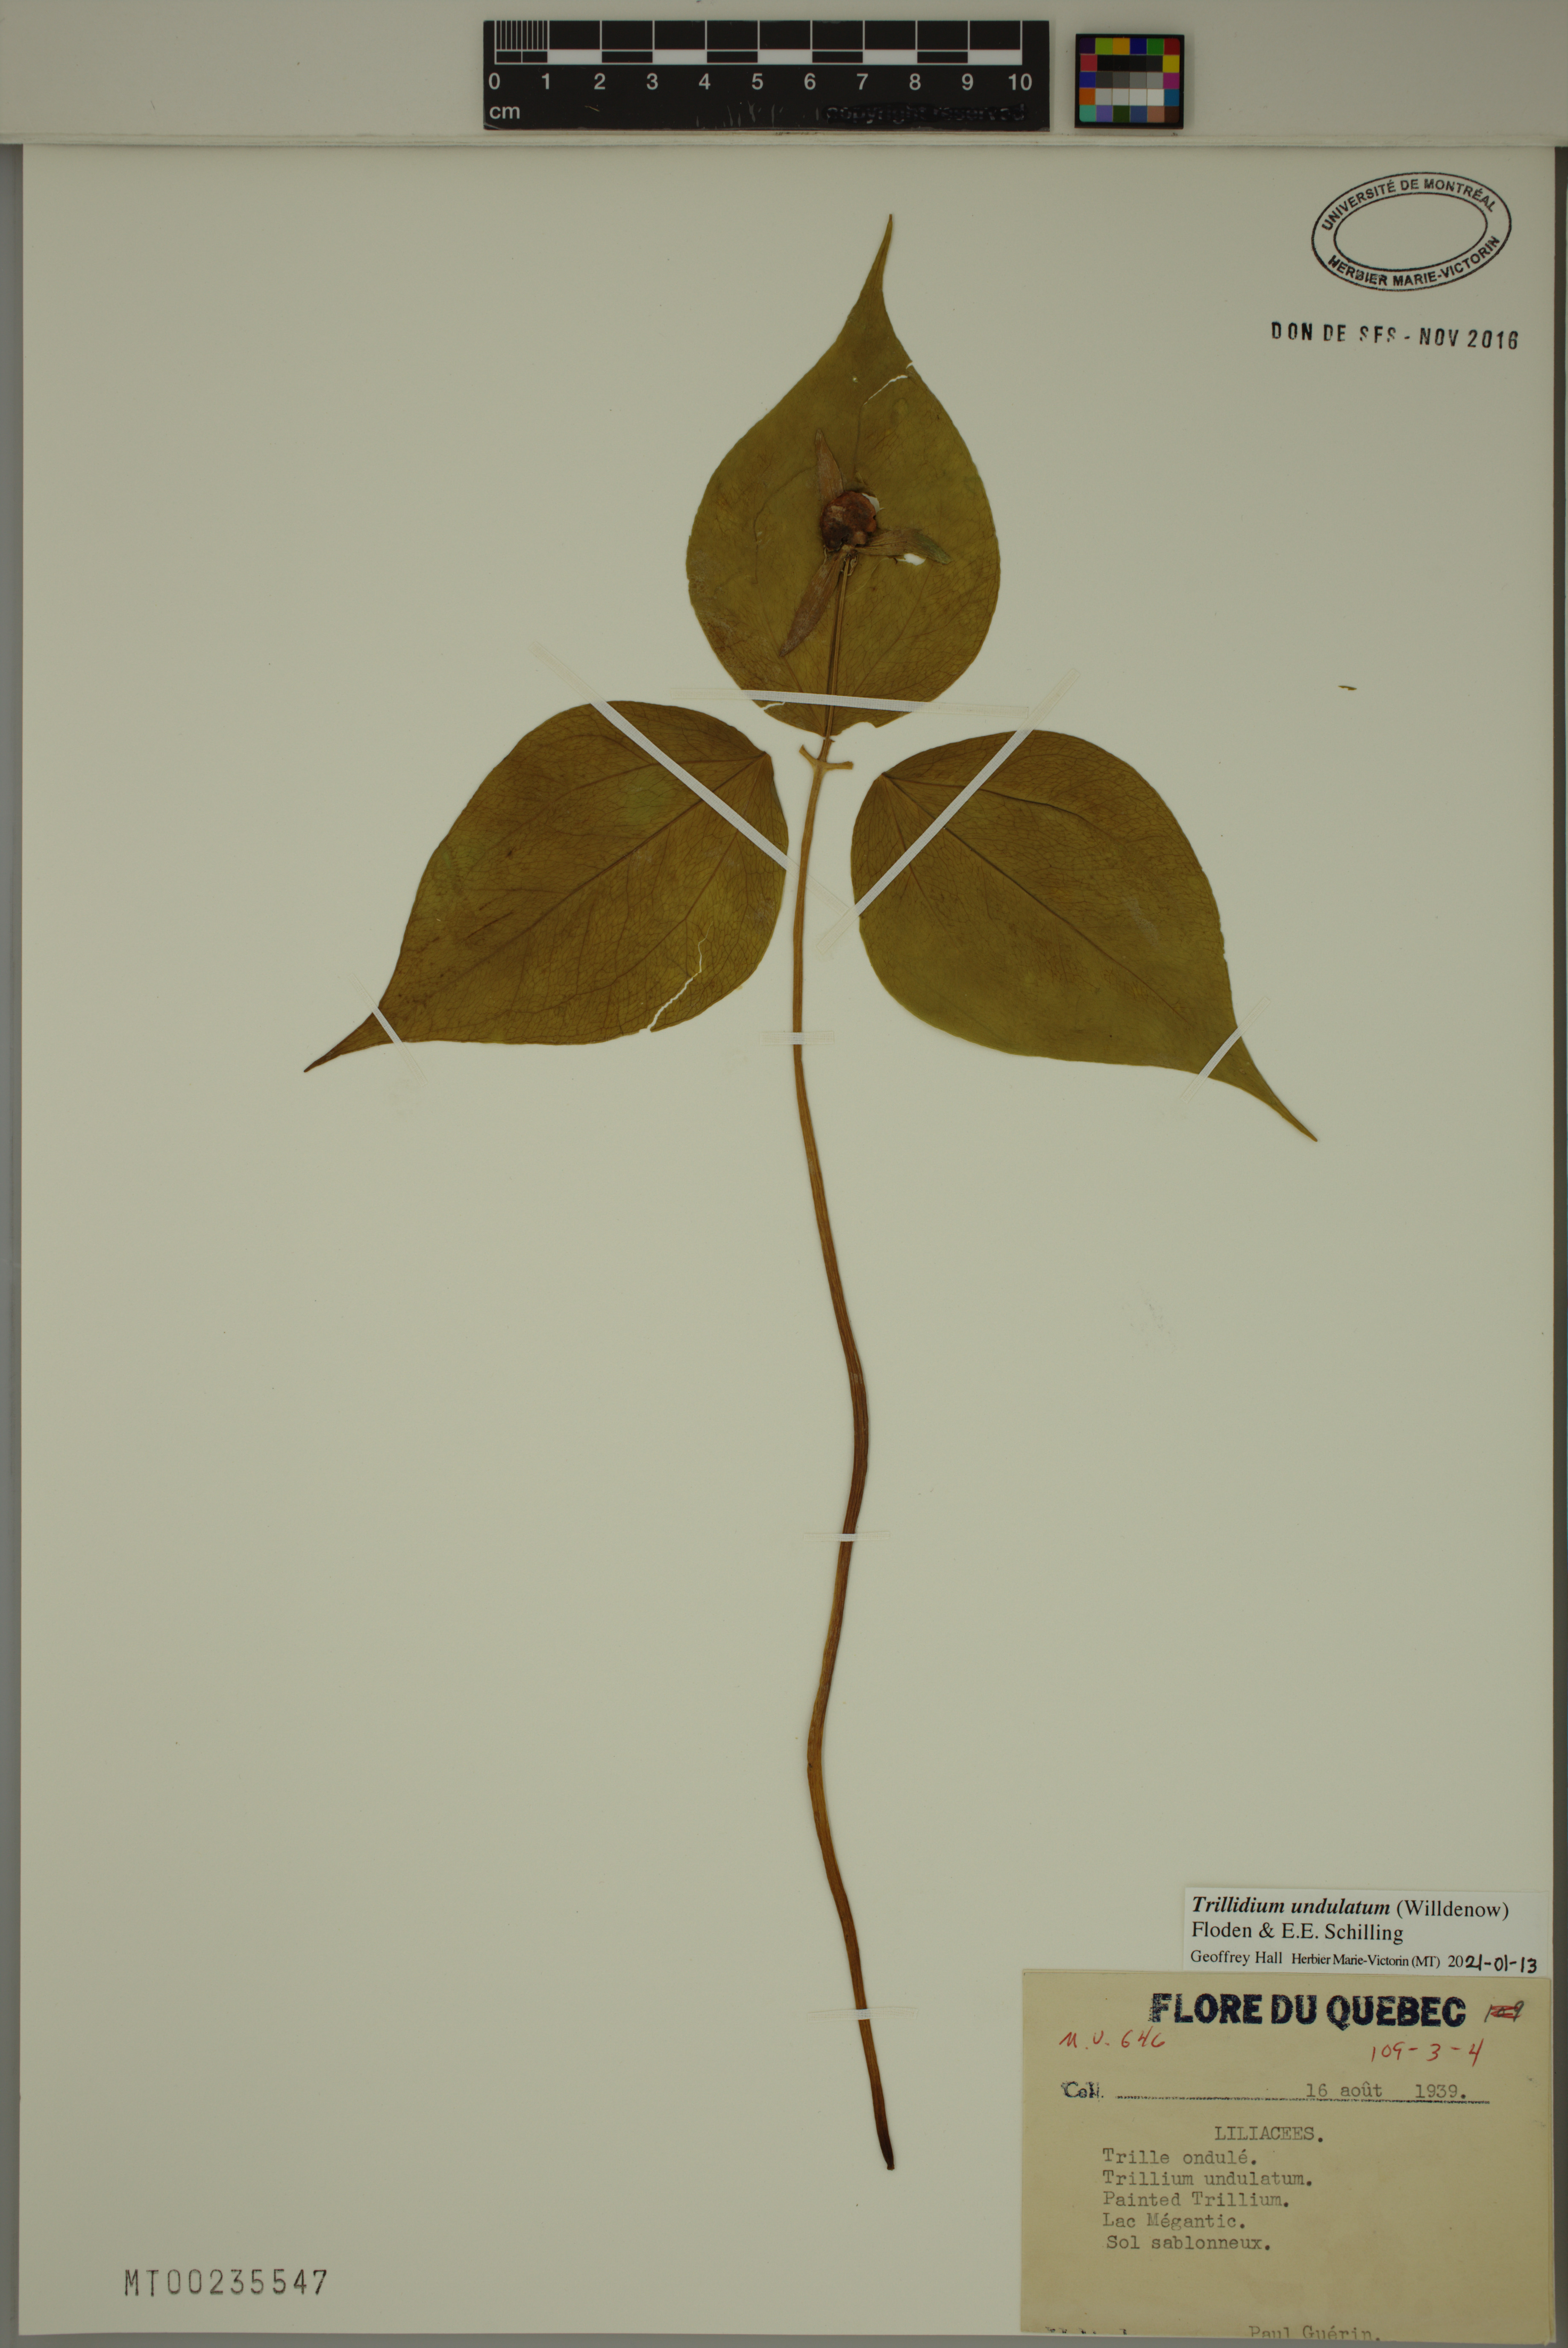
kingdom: Plantae
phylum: Tracheophyta
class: Liliopsida
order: Liliales
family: Melanthiaceae
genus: Trillium
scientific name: Trillium undulatum
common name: Paint trillium
